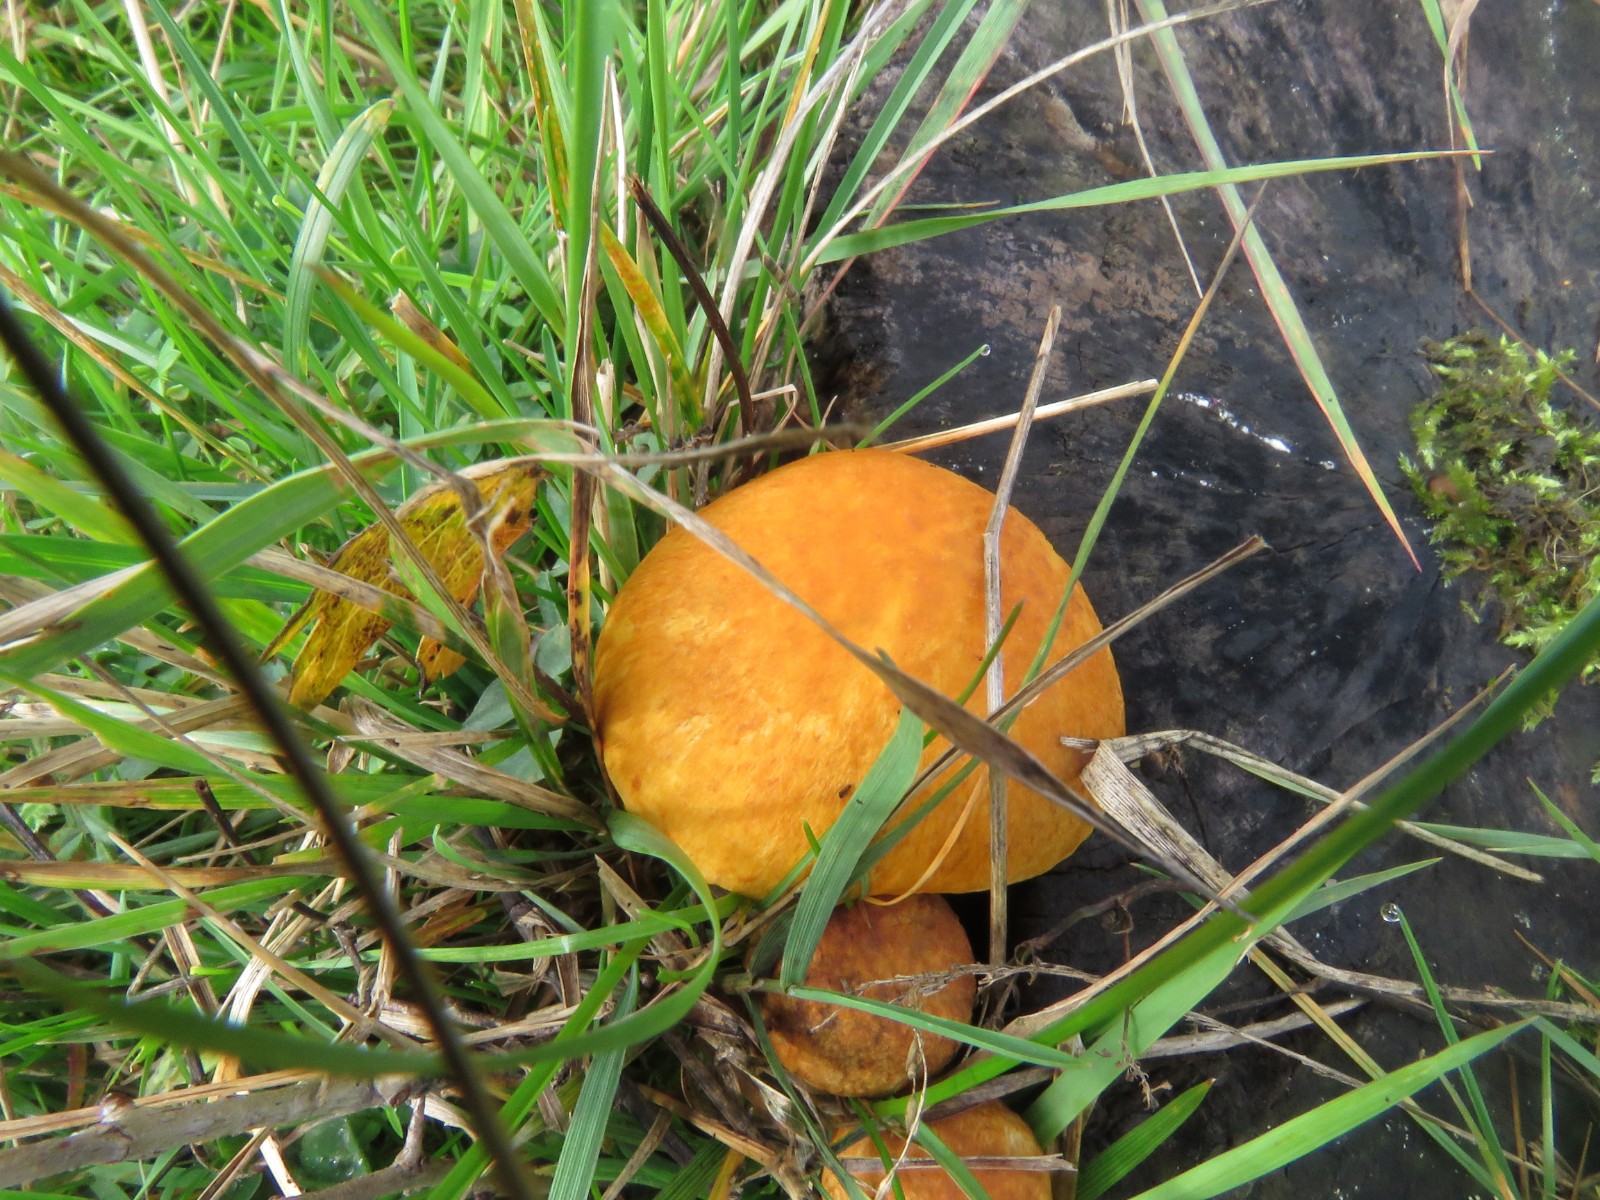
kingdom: Fungi
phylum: Basidiomycota
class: Agaricomycetes
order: Agaricales
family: Hymenogastraceae
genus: Gymnopilus
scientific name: Gymnopilus spectabilis
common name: fibret flammehat
